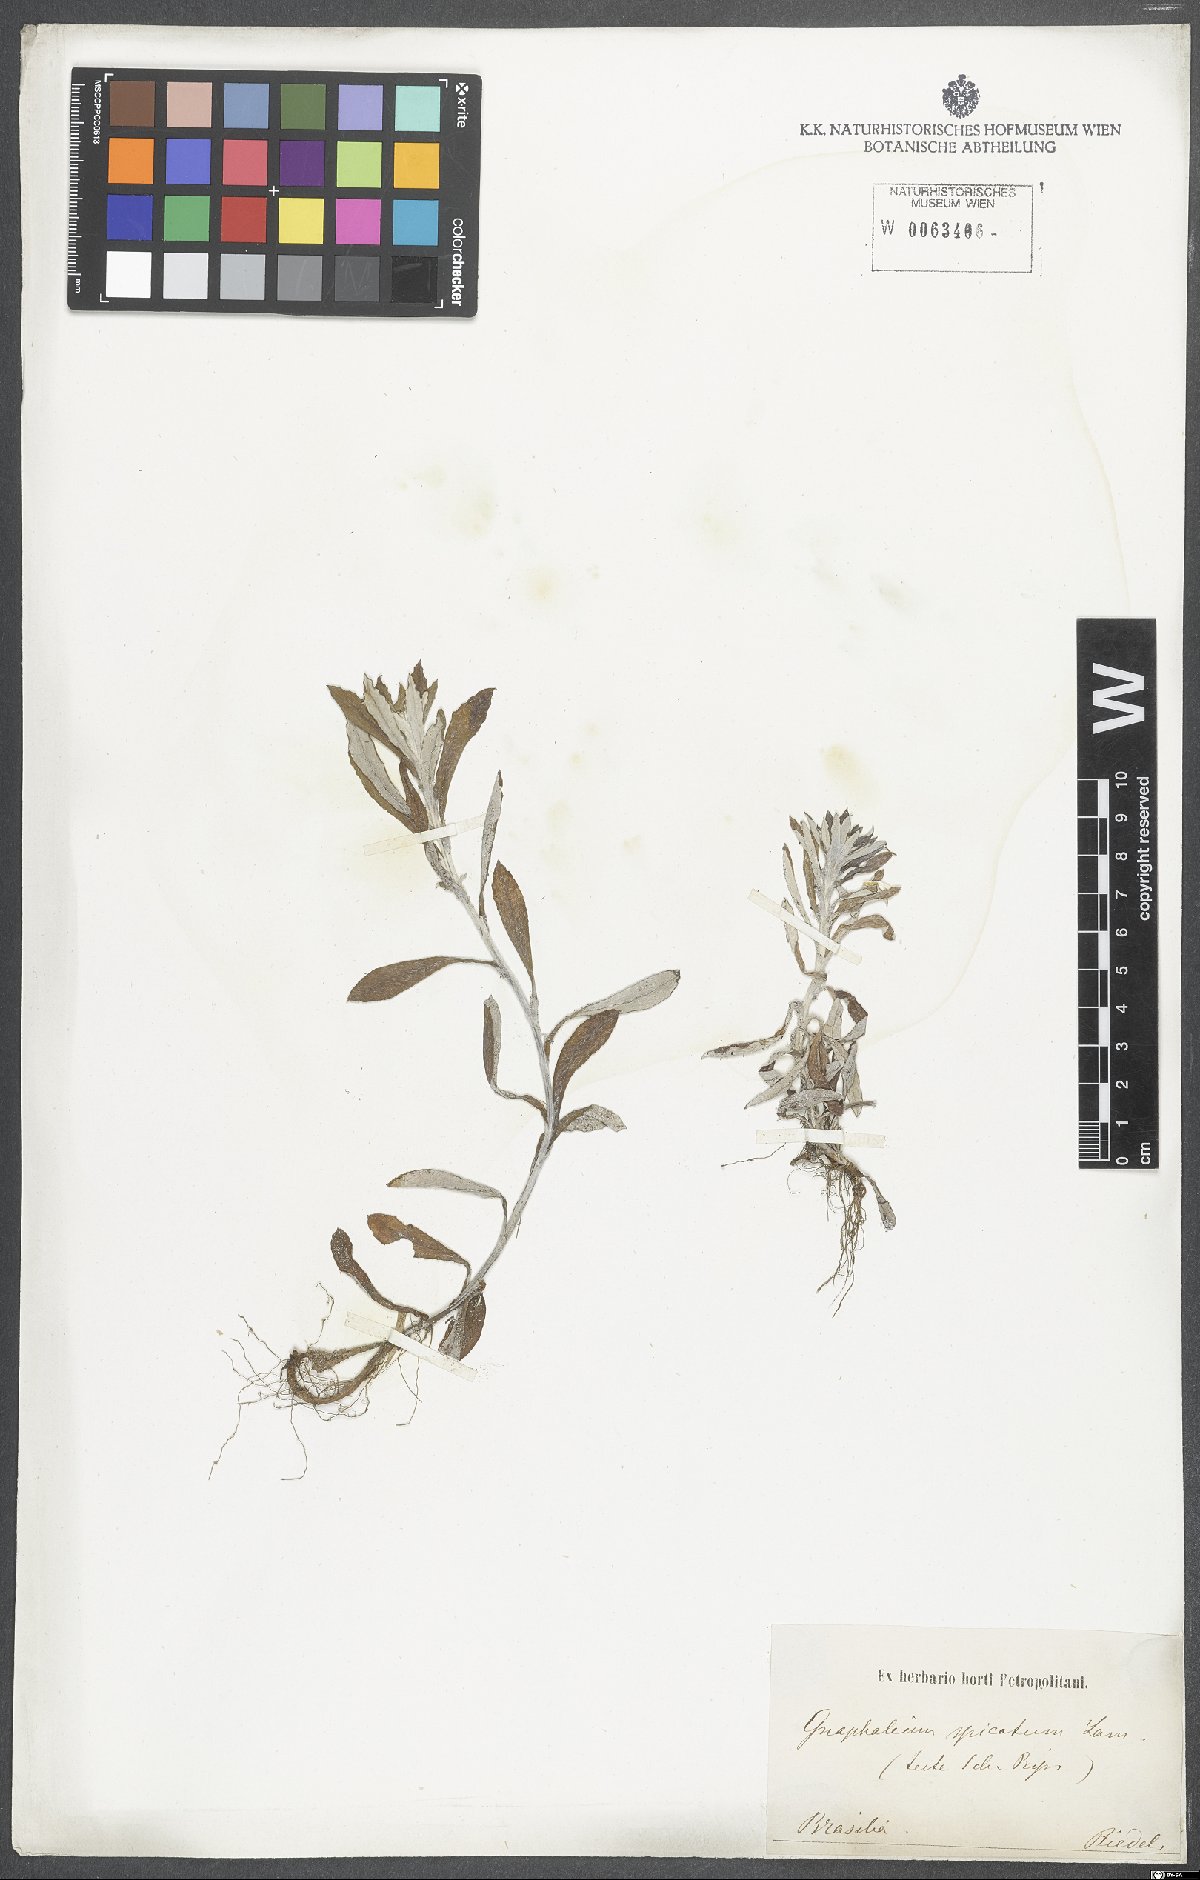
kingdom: Plantae
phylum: Tracheophyta
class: Magnoliopsida
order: Asterales
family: Asteraceae
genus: Gamochaeta
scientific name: Gamochaeta americana
